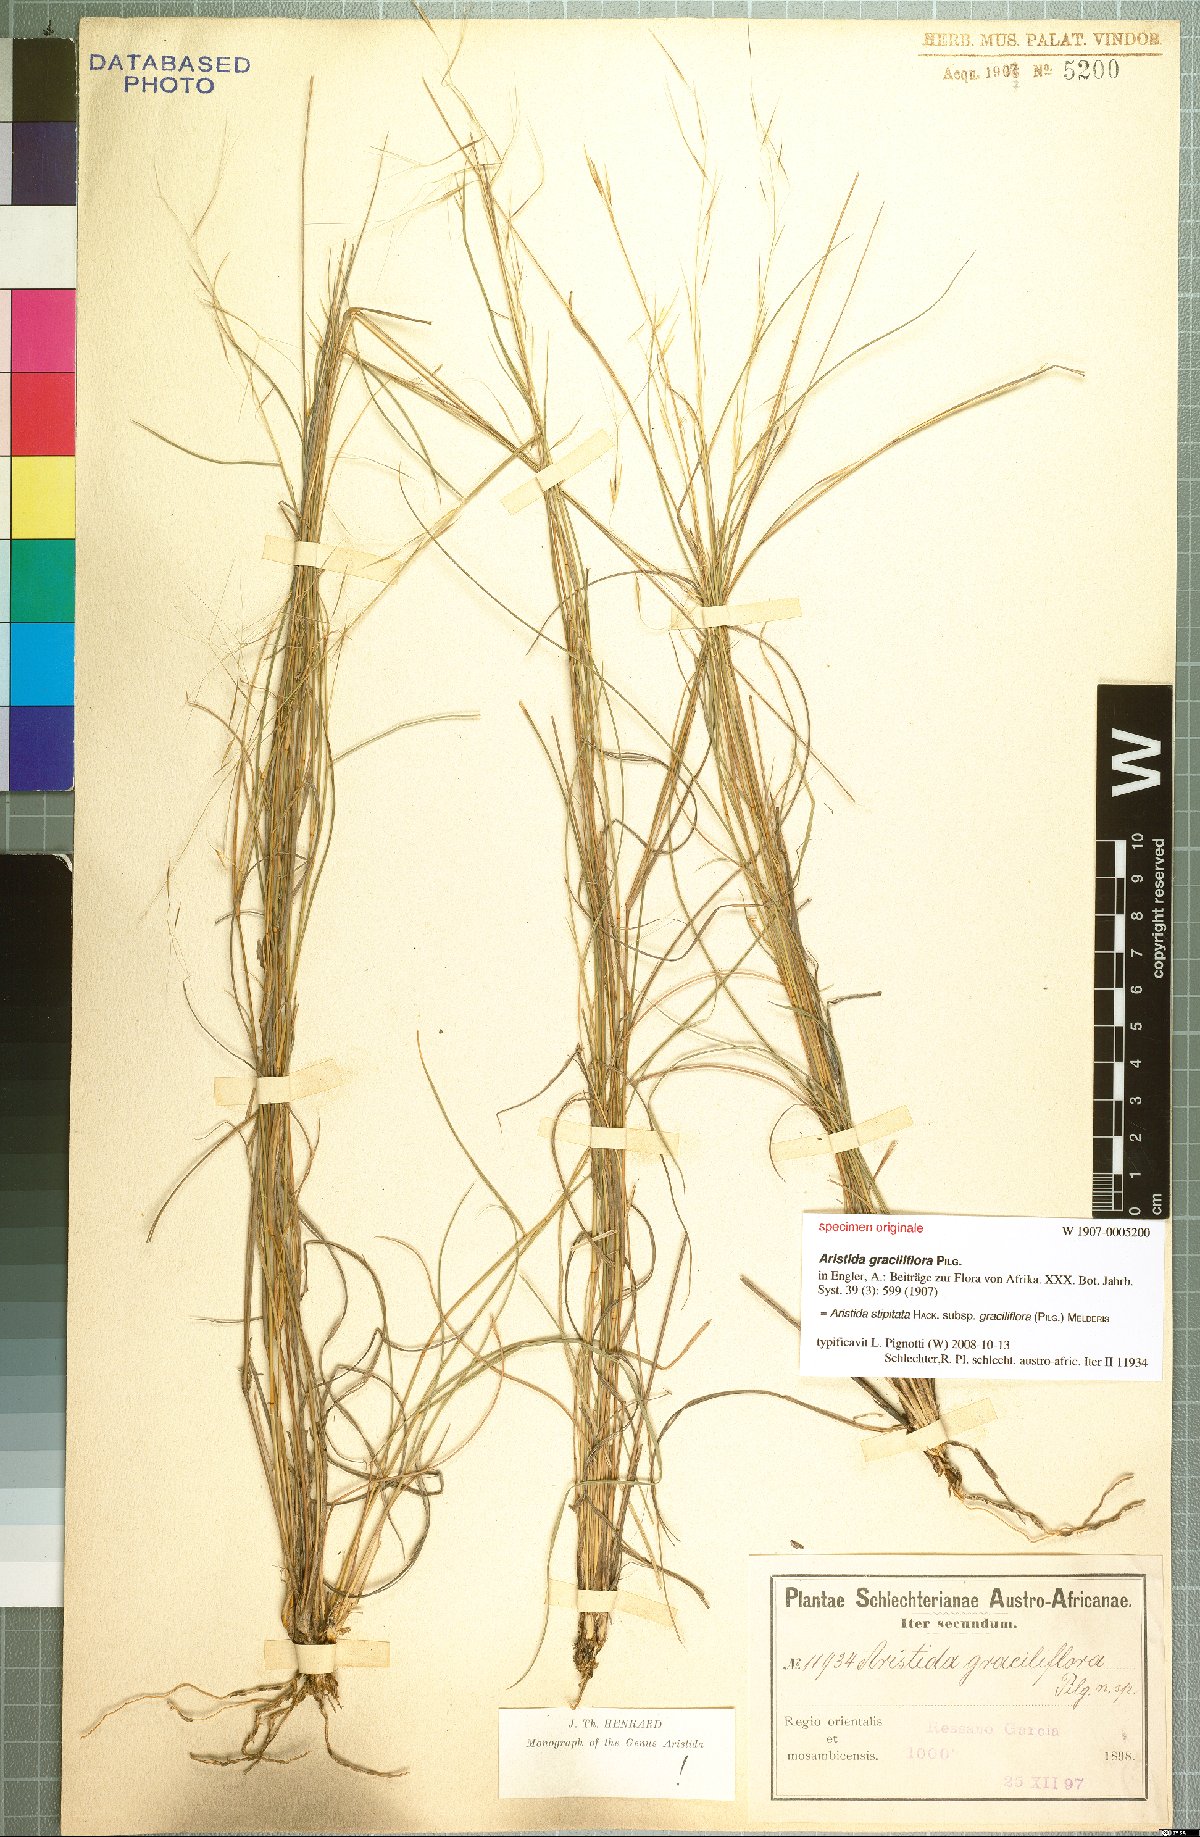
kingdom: Plantae
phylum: Tracheophyta
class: Liliopsida
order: Poales
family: Poaceae
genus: Aristida
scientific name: Aristida stipitata
